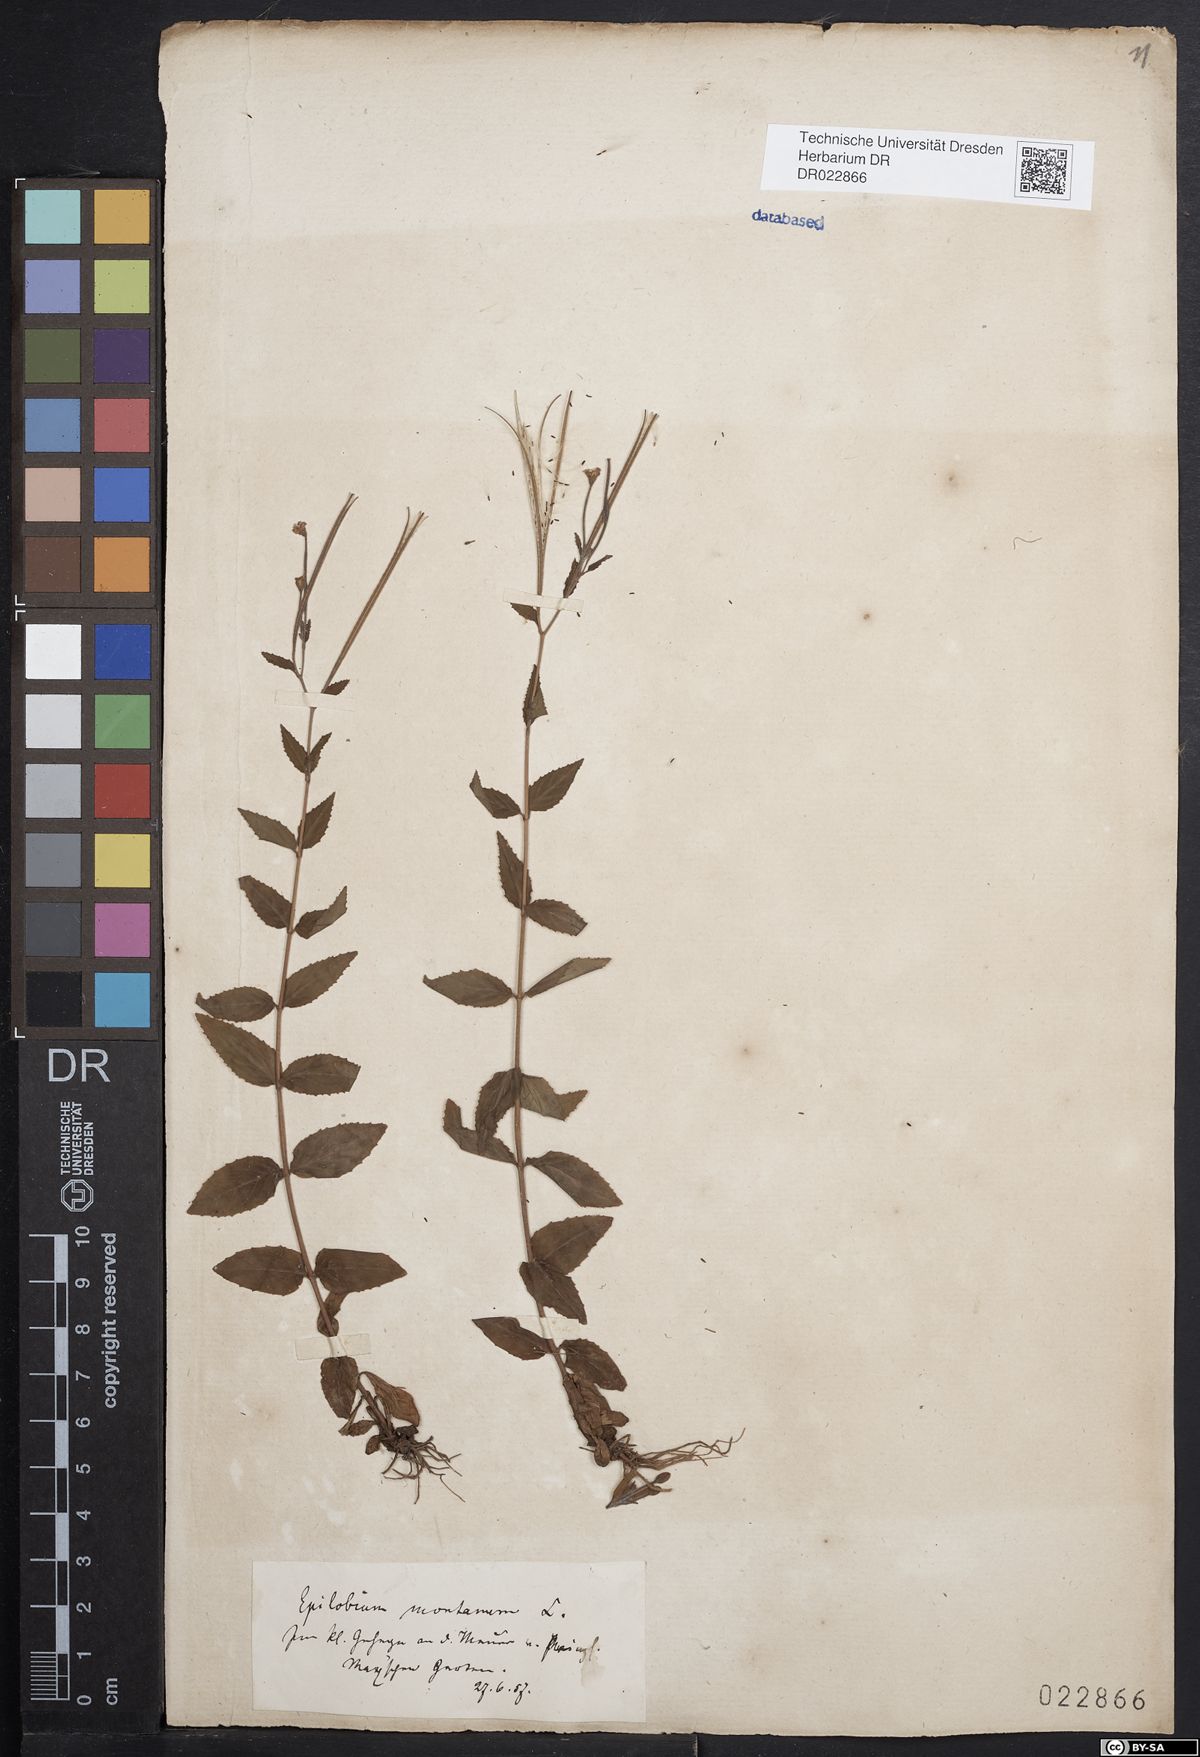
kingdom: Plantae
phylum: Tracheophyta
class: Magnoliopsida
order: Myrtales
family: Onagraceae
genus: Epilobium
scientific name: Epilobium montanum
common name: Broad-leaved willowherb
